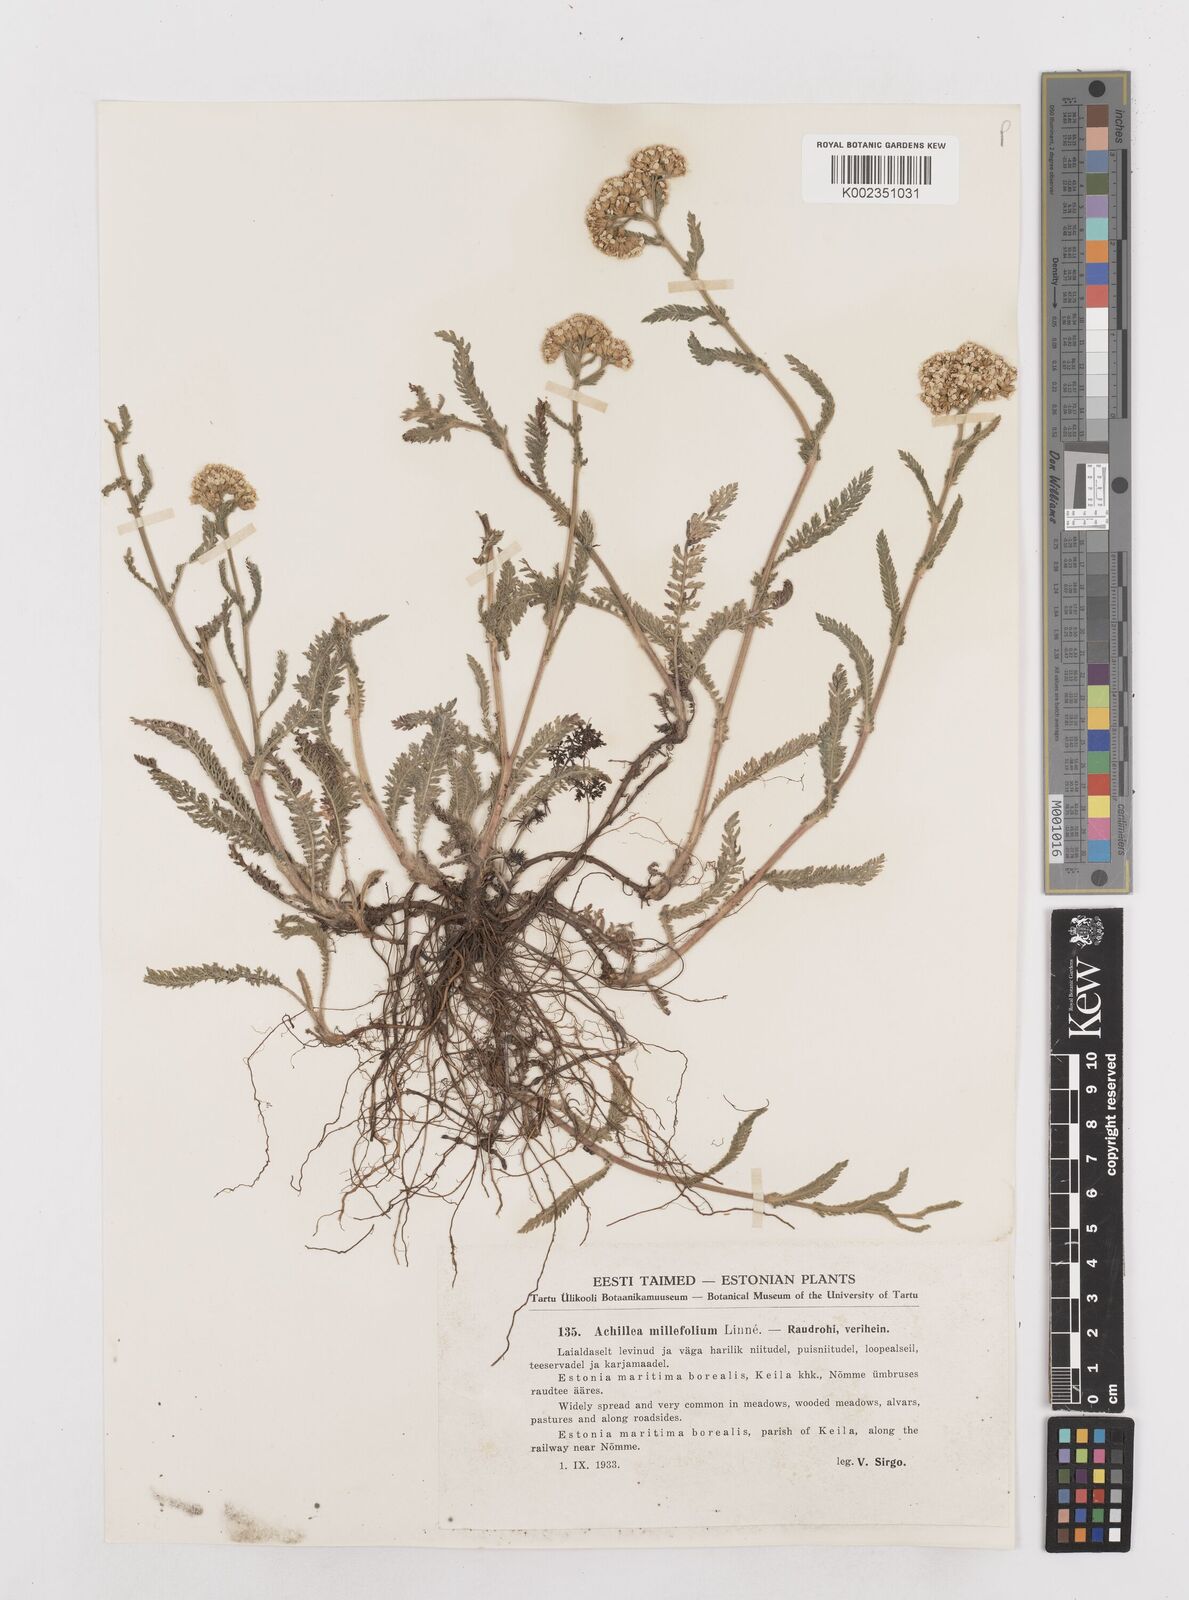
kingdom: Plantae
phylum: Tracheophyta
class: Magnoliopsida
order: Asterales
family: Asteraceae
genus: Achillea
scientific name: Achillea millefolium
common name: Yarrow
